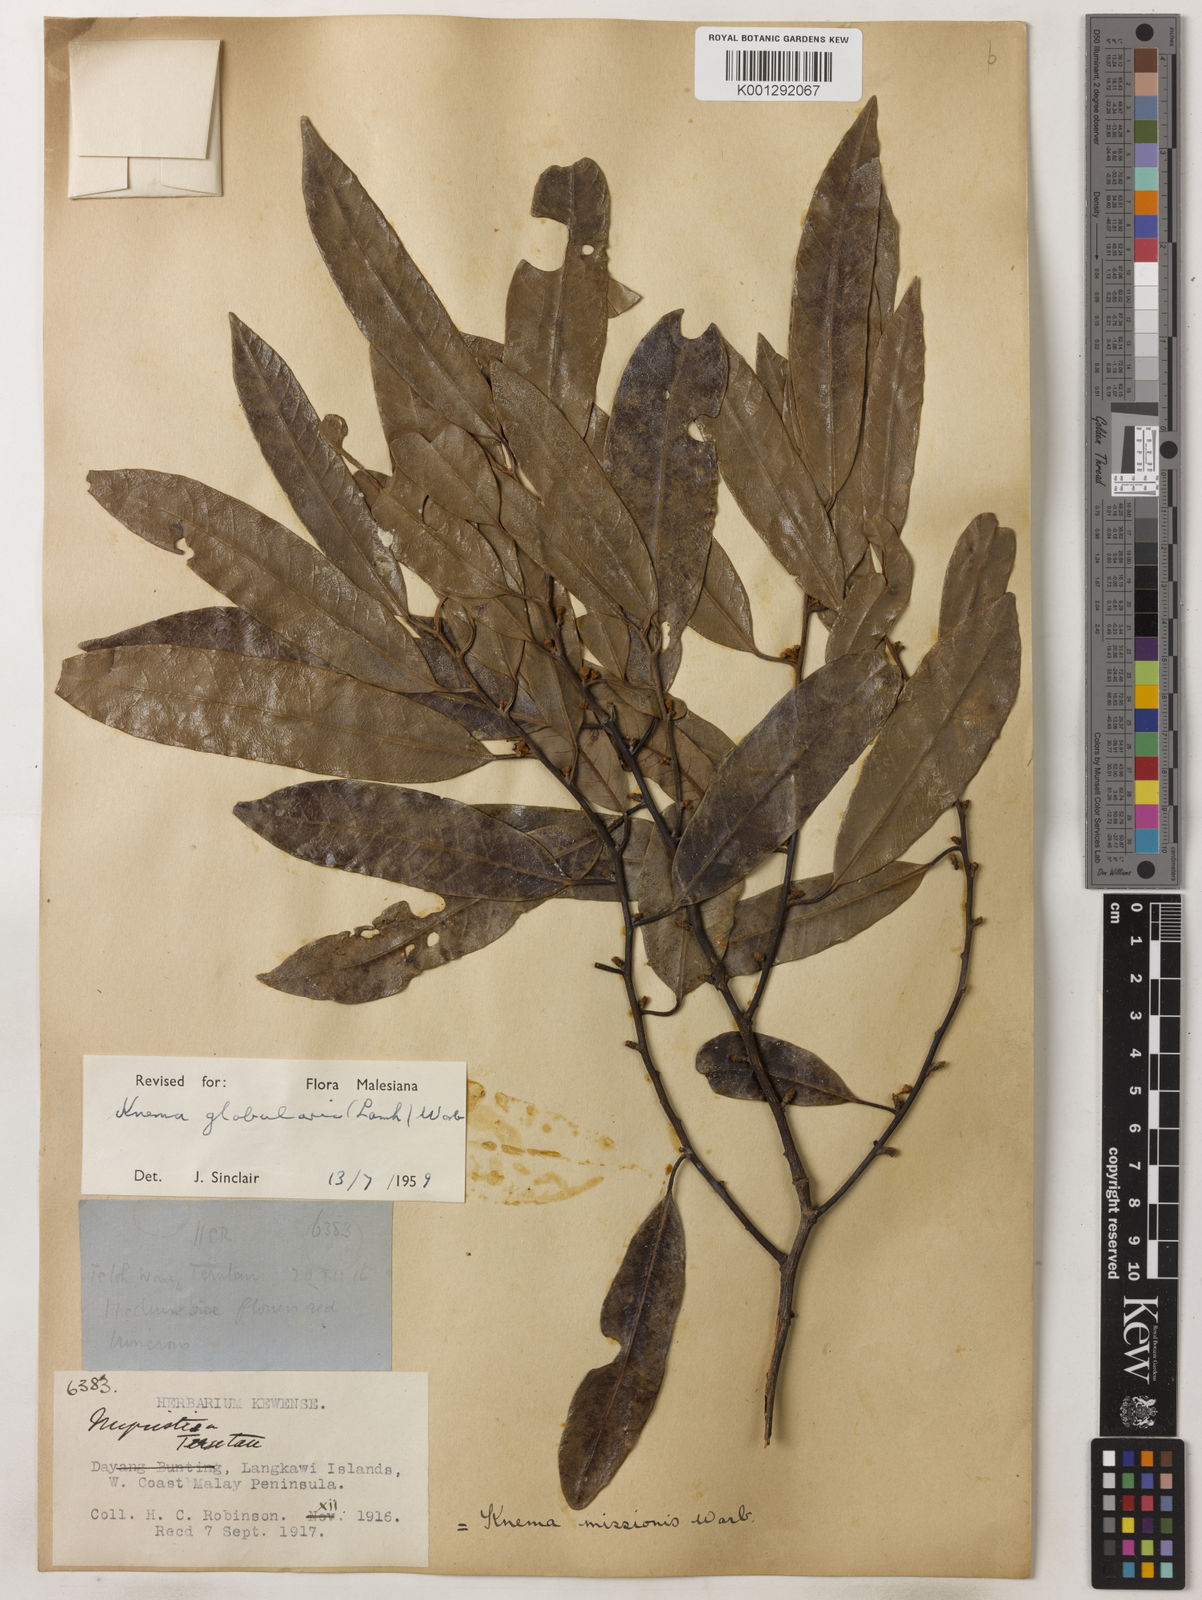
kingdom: Plantae
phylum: Tracheophyta
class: Magnoliopsida
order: Magnoliales
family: Myristicaceae
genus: Knema
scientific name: Knema globularia
